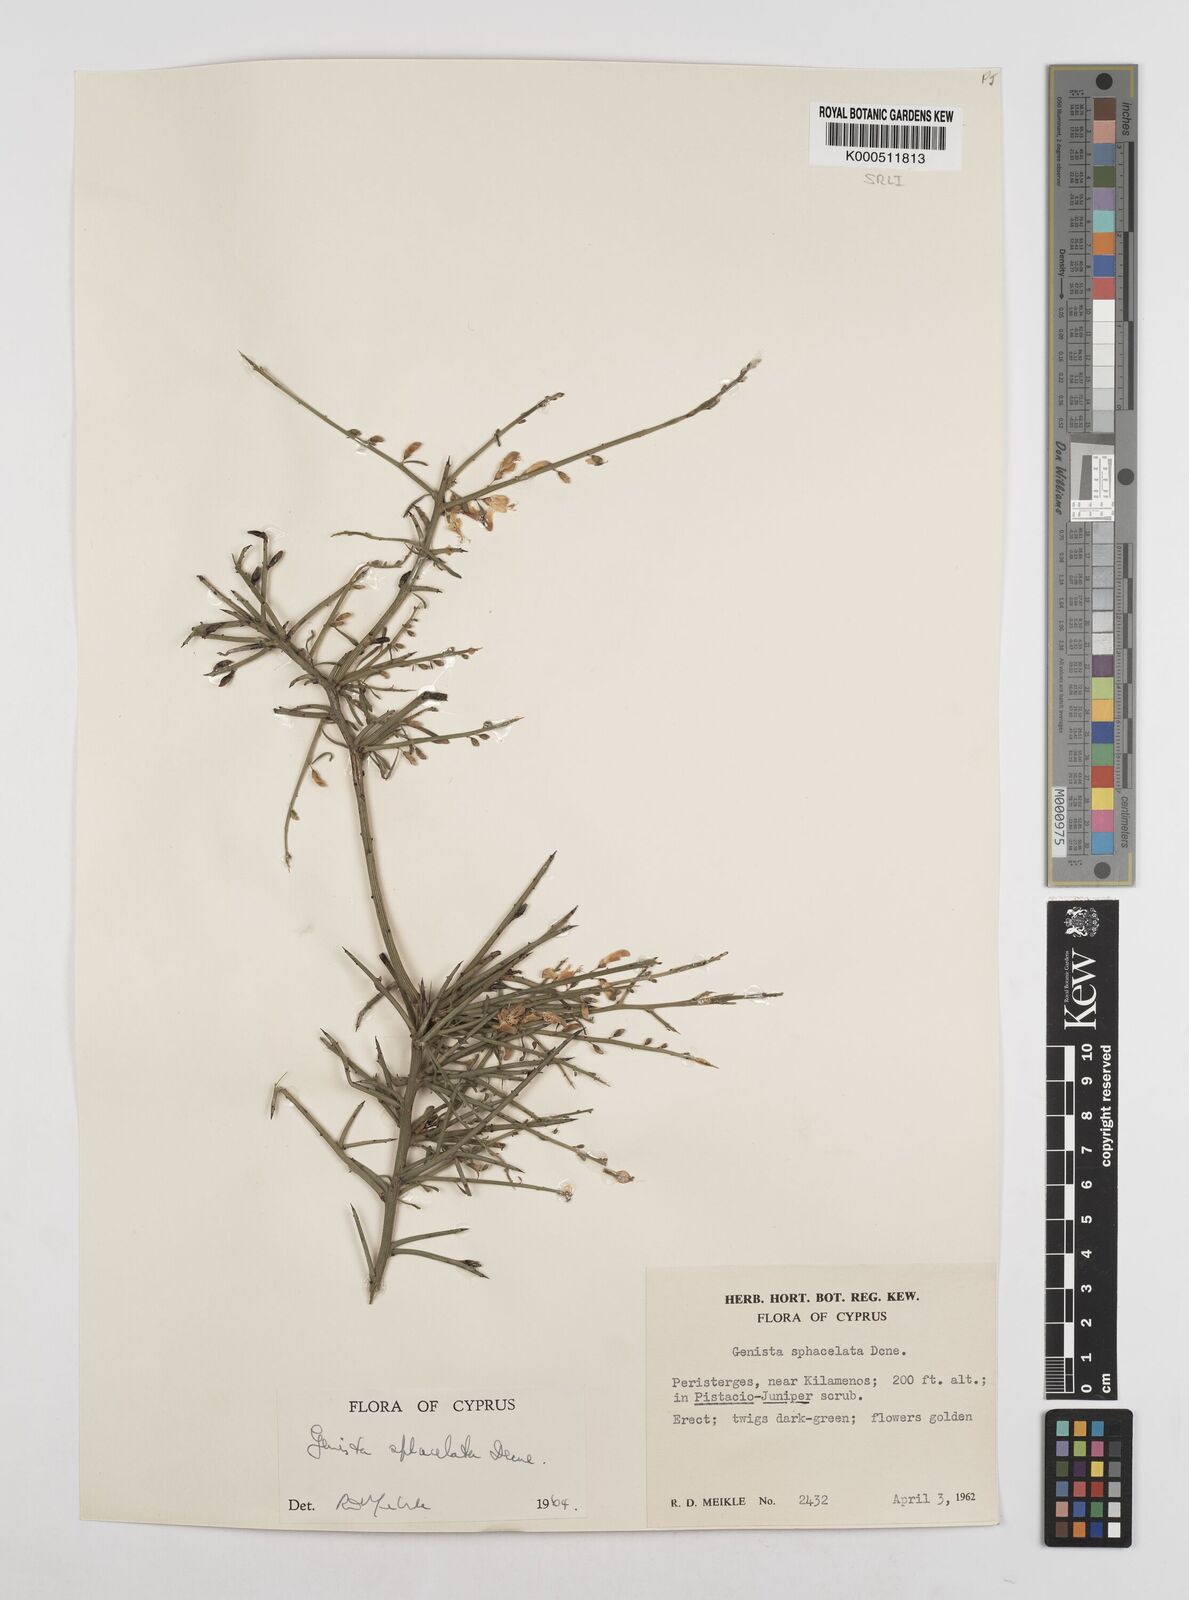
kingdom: Plantae
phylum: Tracheophyta
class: Magnoliopsida
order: Fabales
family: Fabaceae
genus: Genista
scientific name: Genista
